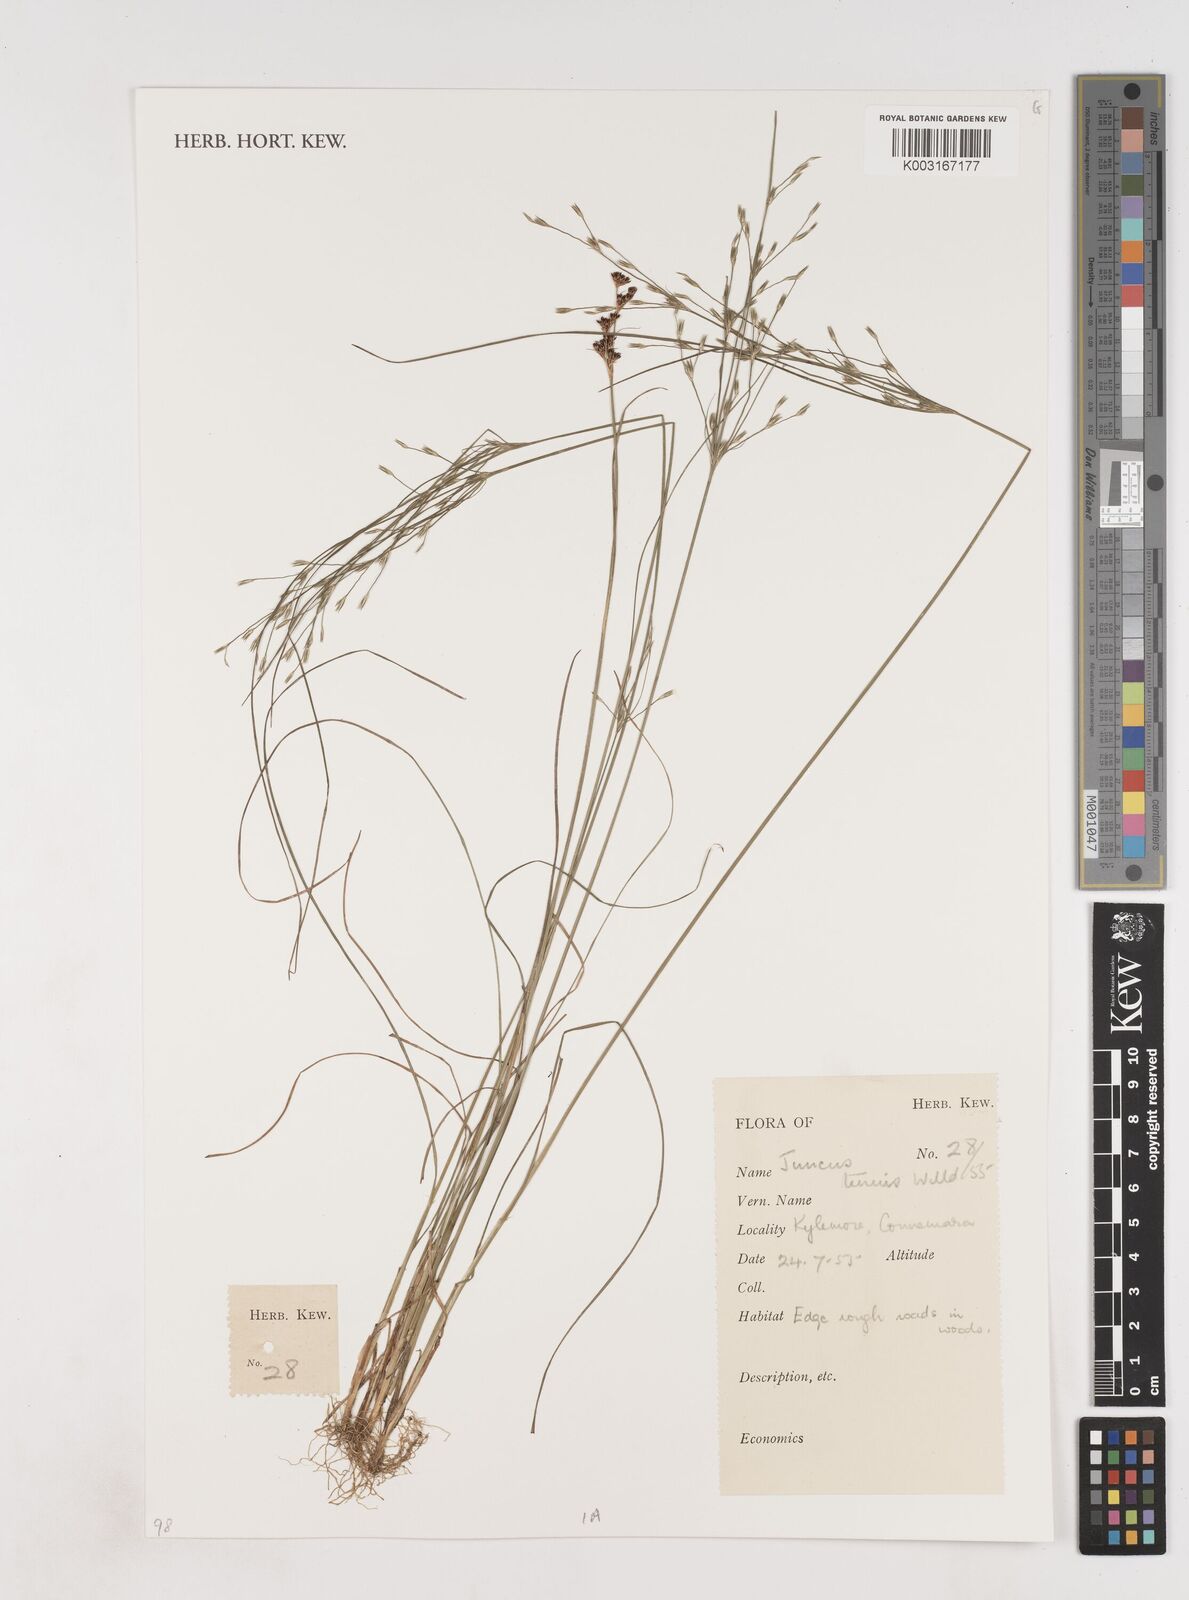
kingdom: Plantae
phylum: Tracheophyta
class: Liliopsida
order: Poales
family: Juncaceae
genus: Juncus
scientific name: Juncus tenuis
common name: Slender rush
